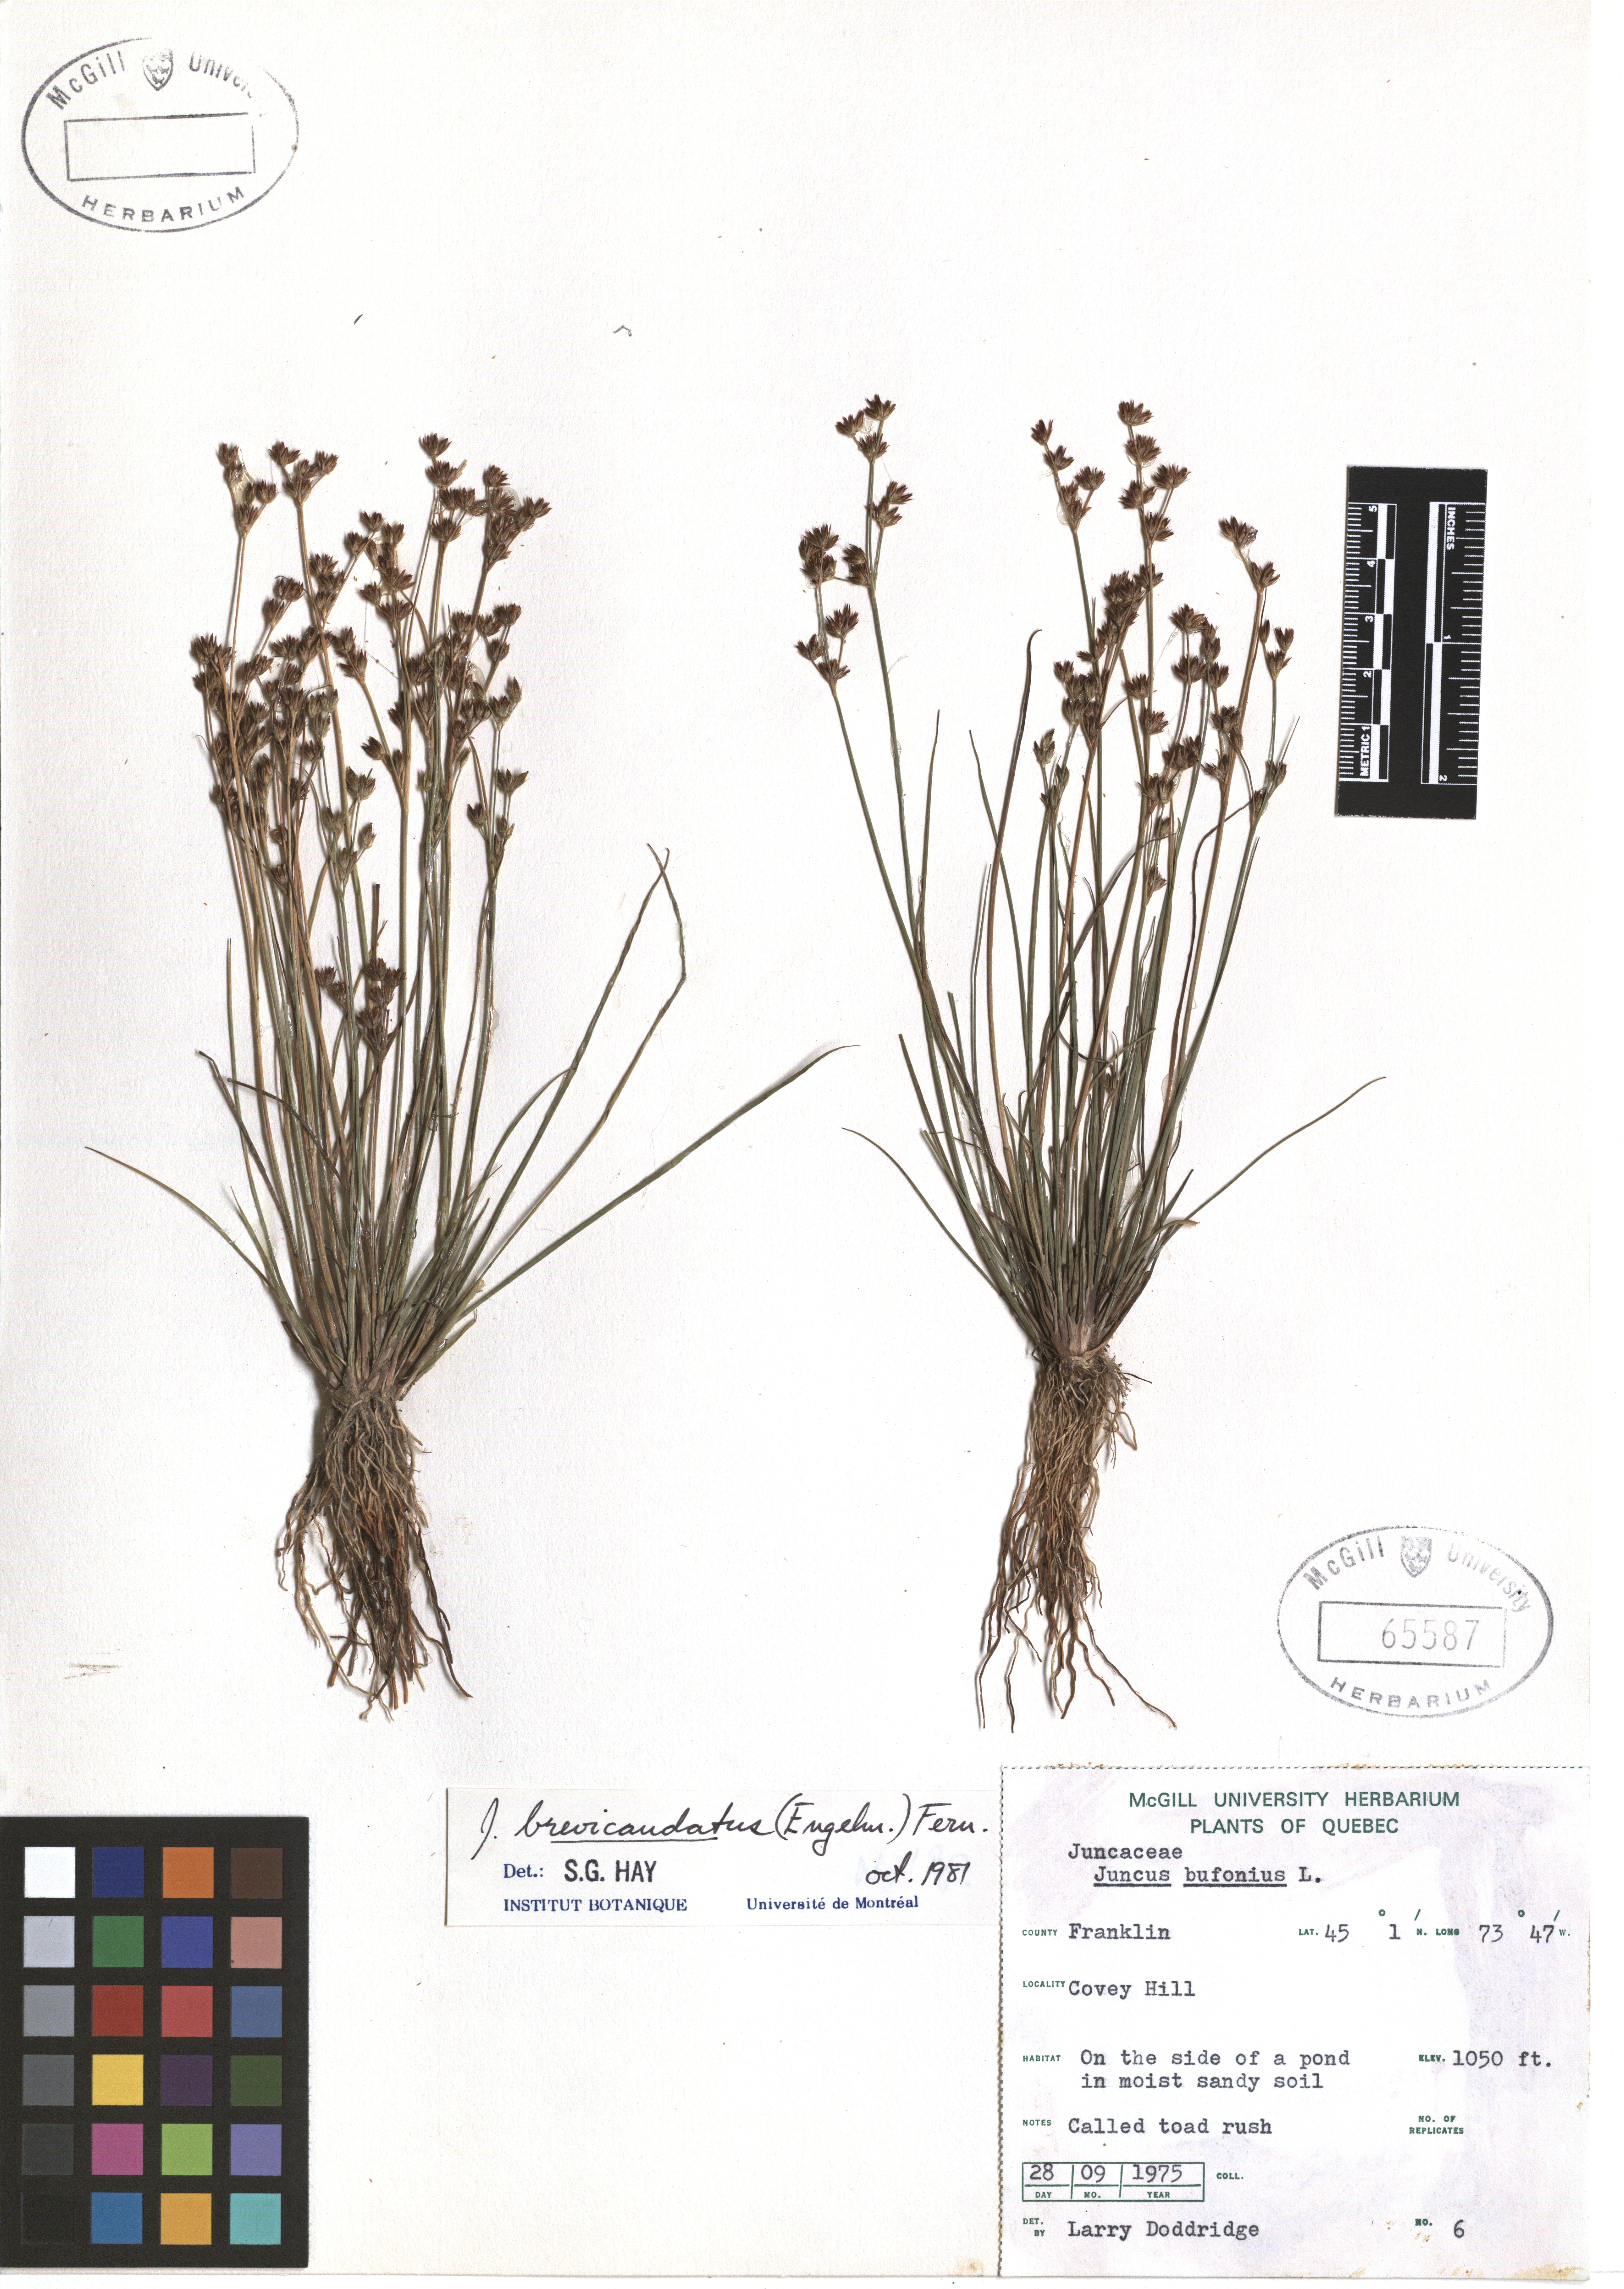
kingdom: Plantae
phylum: Tracheophyta
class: Liliopsida
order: Poales
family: Juncaceae
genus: Juncus
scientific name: Juncus brevicaudatus
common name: Narrow-panicle rush
